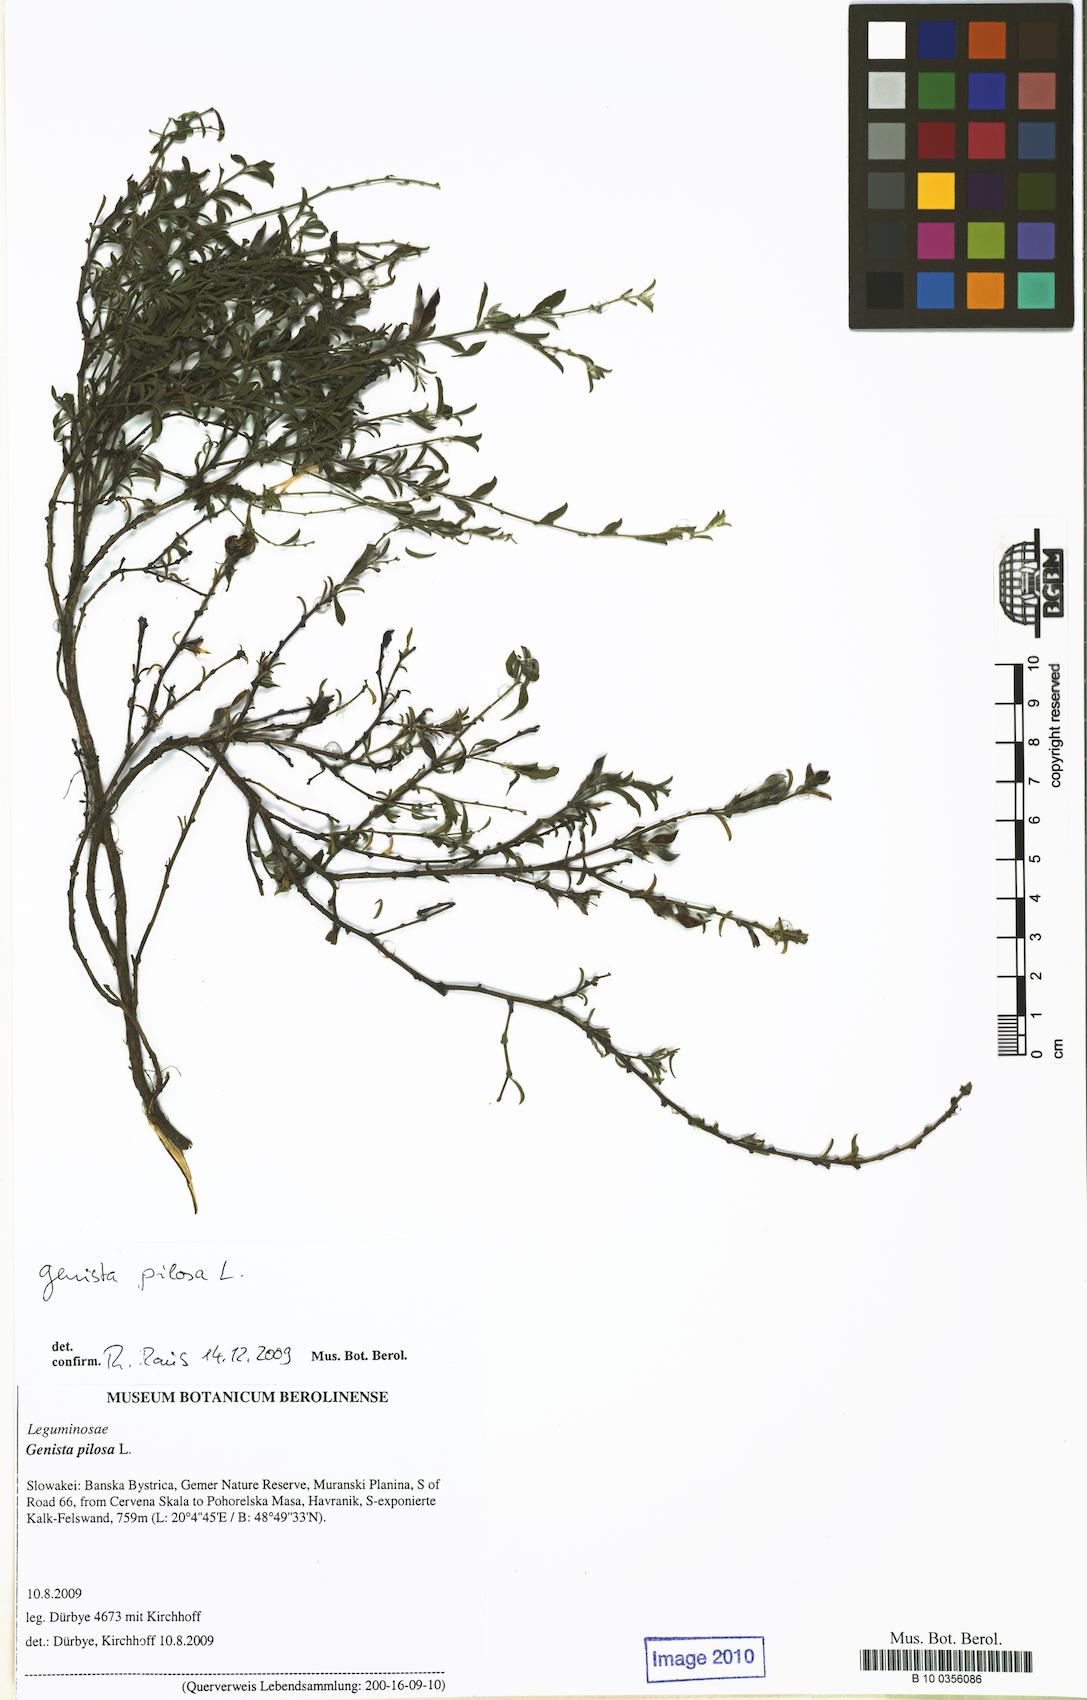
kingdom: Plantae
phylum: Tracheophyta
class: Magnoliopsida
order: Fabales
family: Fabaceae
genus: Genista
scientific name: Genista pilosa
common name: Hairy greenweed
